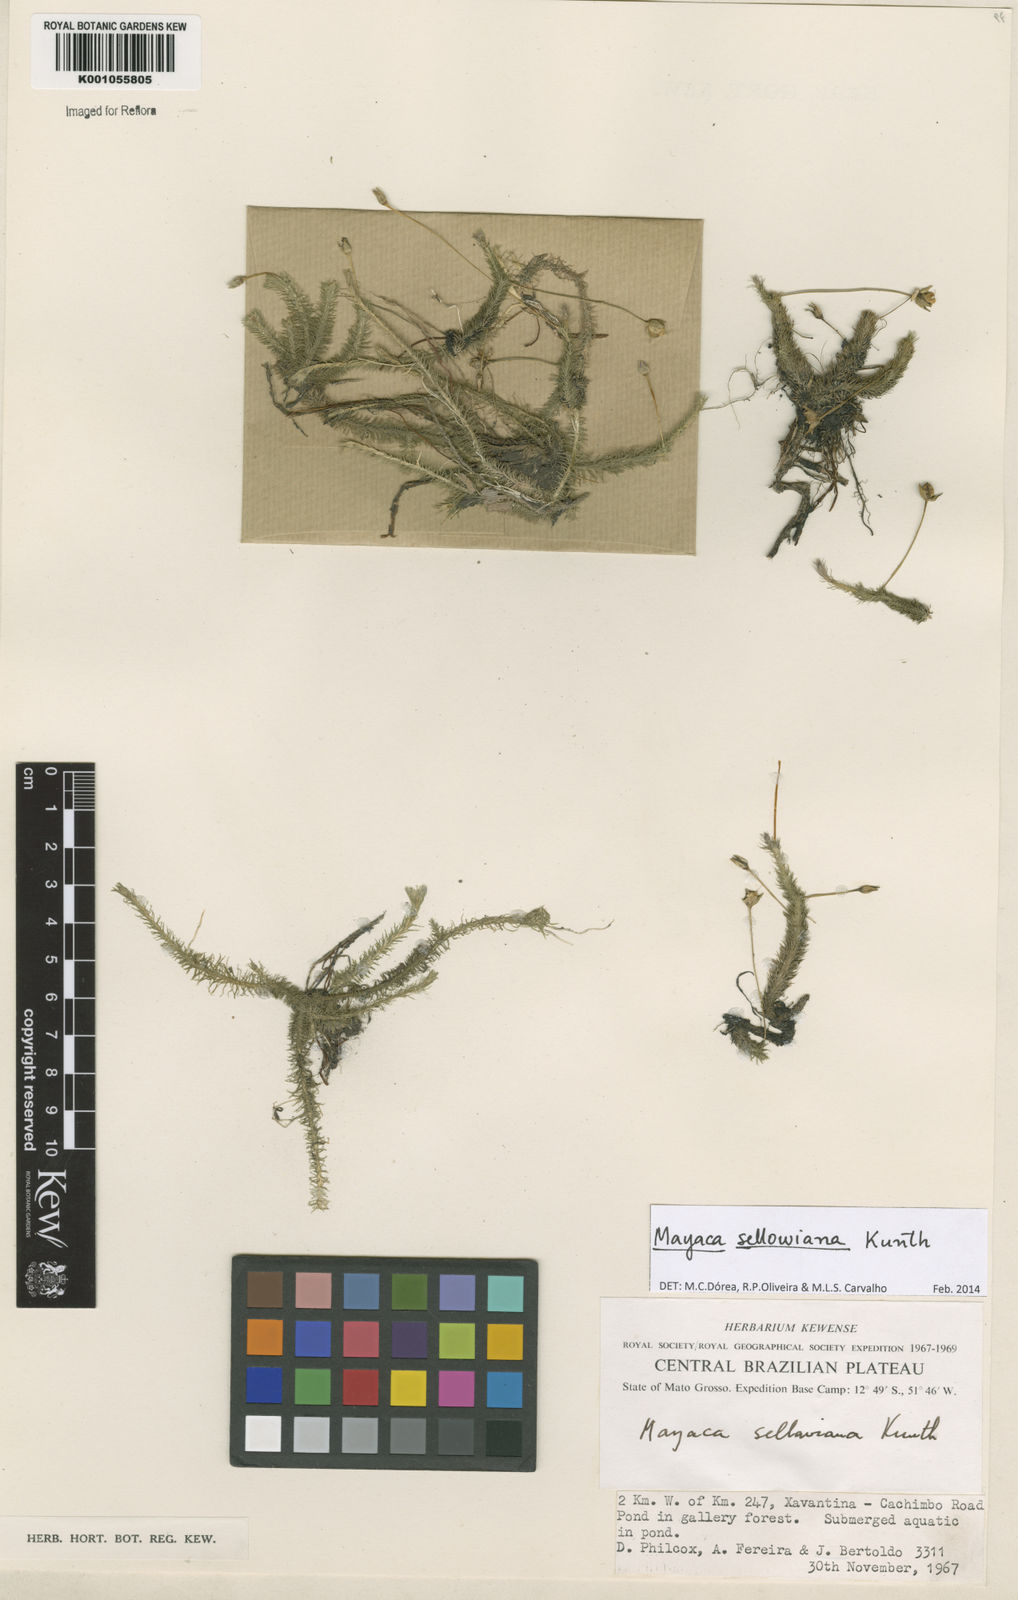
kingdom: Plantae
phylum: Tracheophyta
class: Liliopsida
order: Poales
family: Mayacaceae
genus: Mayaca
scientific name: Mayaca sellowiana
